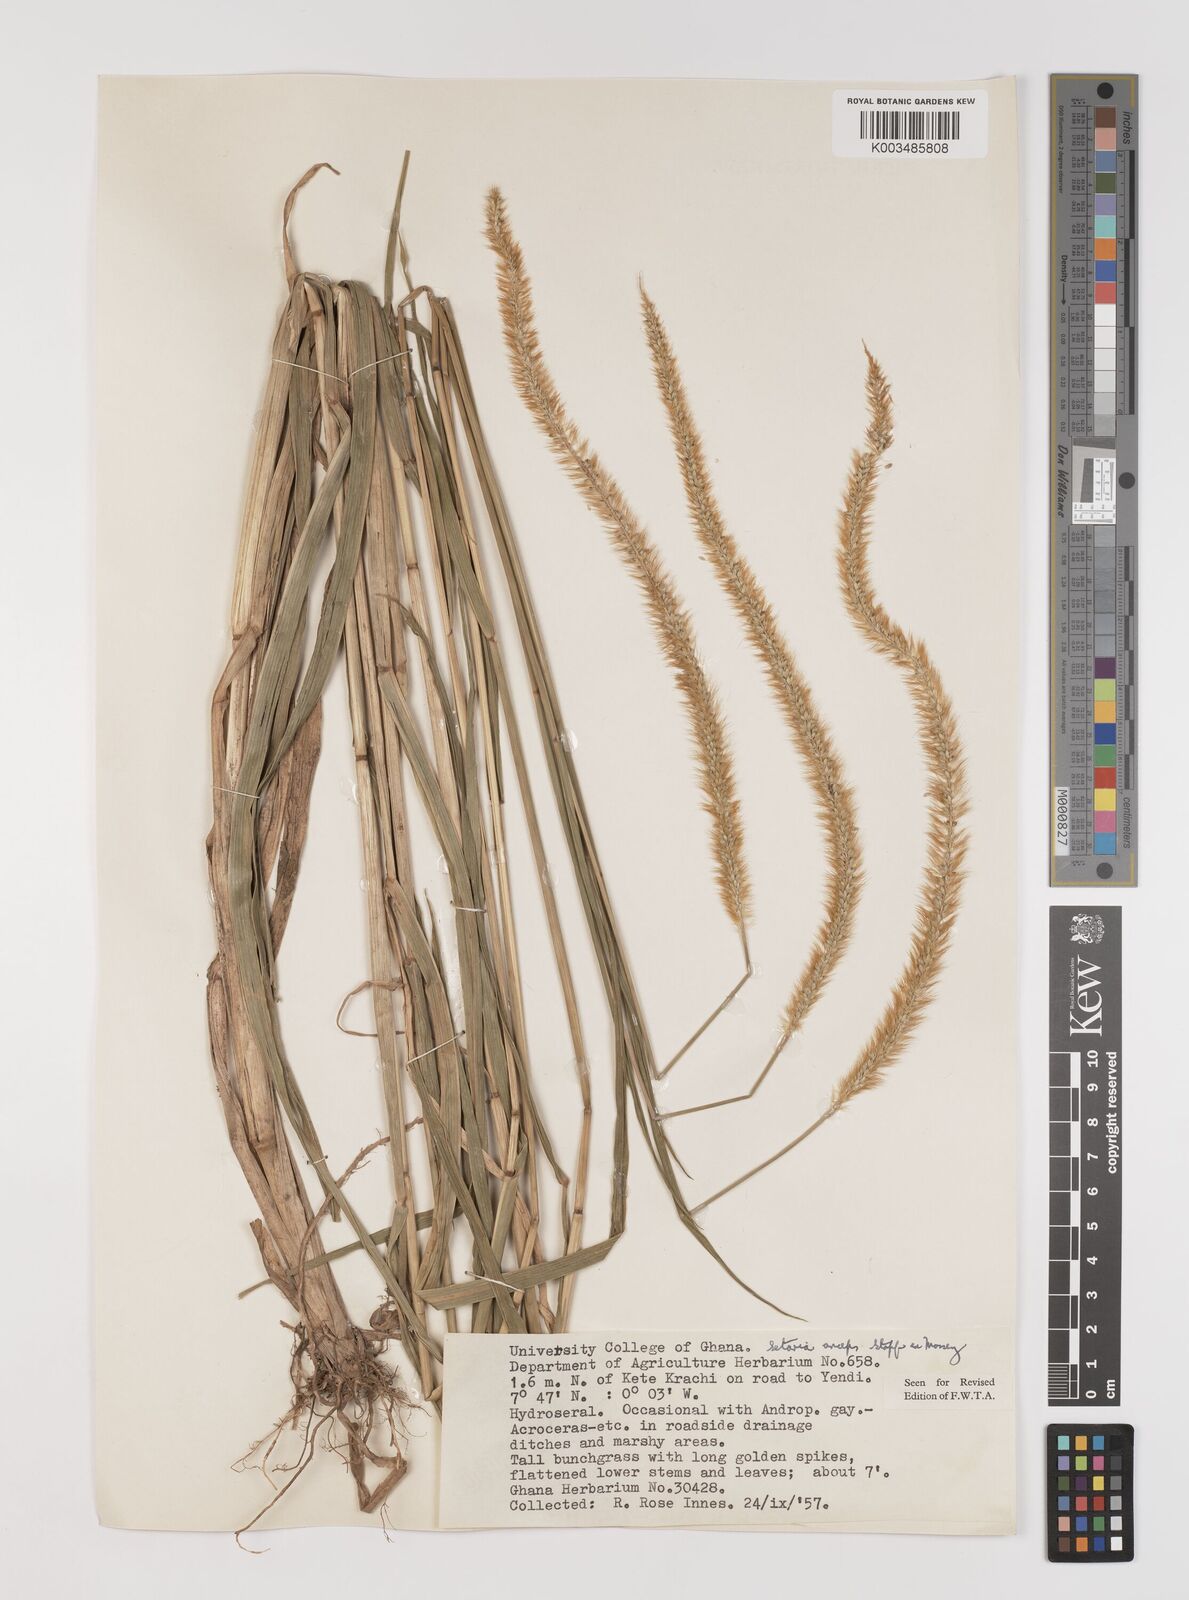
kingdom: Plantae
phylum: Tracheophyta
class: Liliopsida
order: Poales
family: Poaceae
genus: Setaria
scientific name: Setaria sphacelata
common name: African bristlegrass
